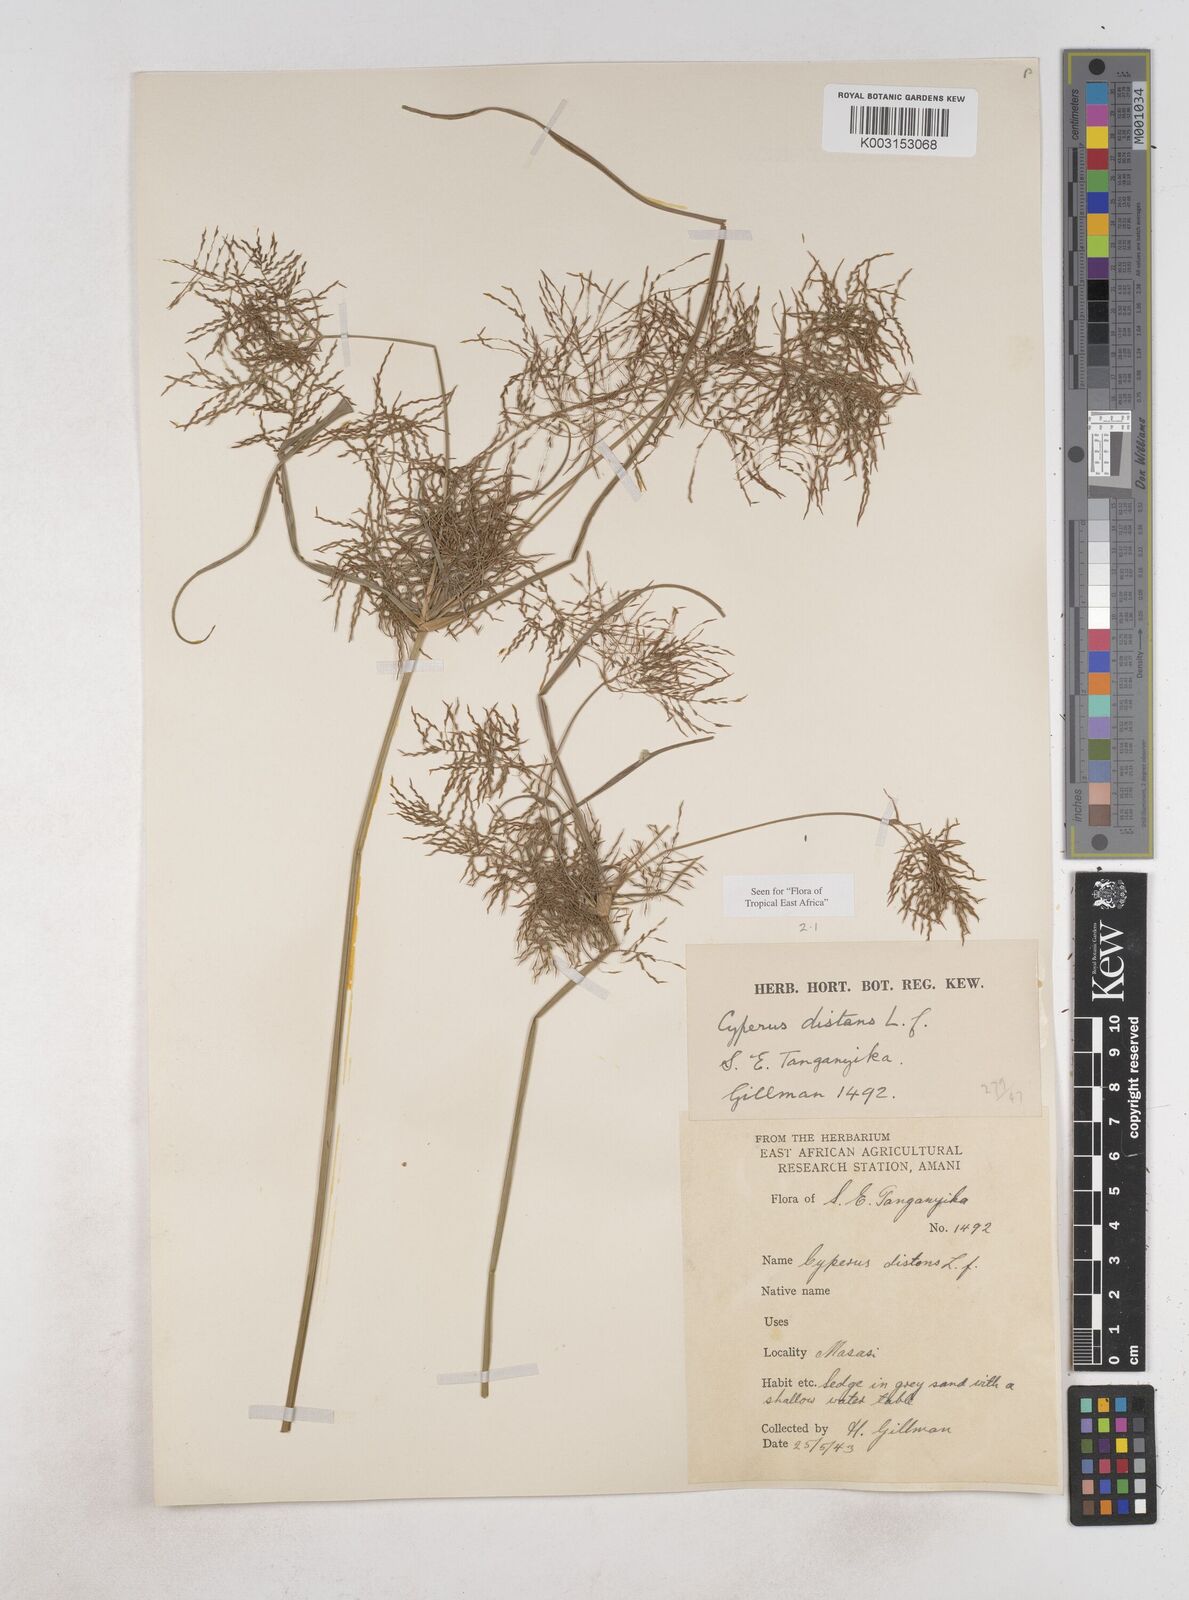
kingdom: Plantae
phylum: Tracheophyta
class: Liliopsida
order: Poales
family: Cyperaceae
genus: Cyperus
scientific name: Cyperus distans
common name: Slender cyperus
